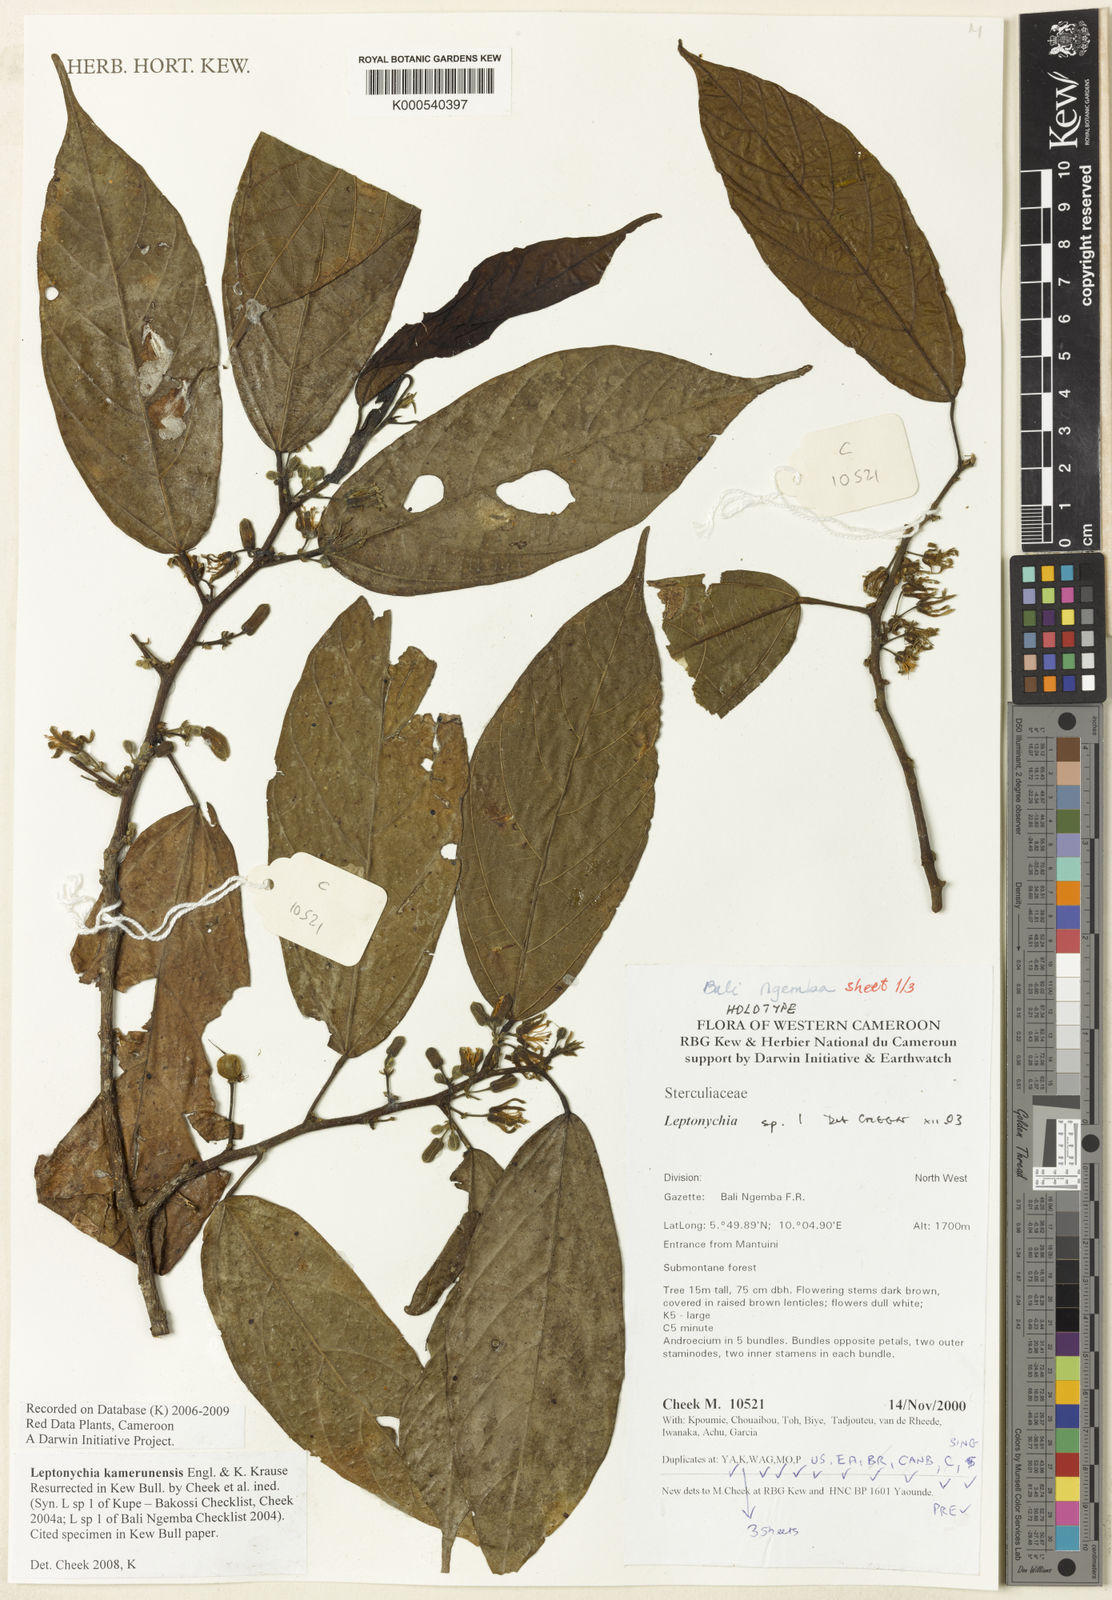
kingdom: Plantae
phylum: Tracheophyta
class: Magnoliopsida
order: Malvales
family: Malvaceae
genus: Leptonychia
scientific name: Leptonychia kamerunensis
